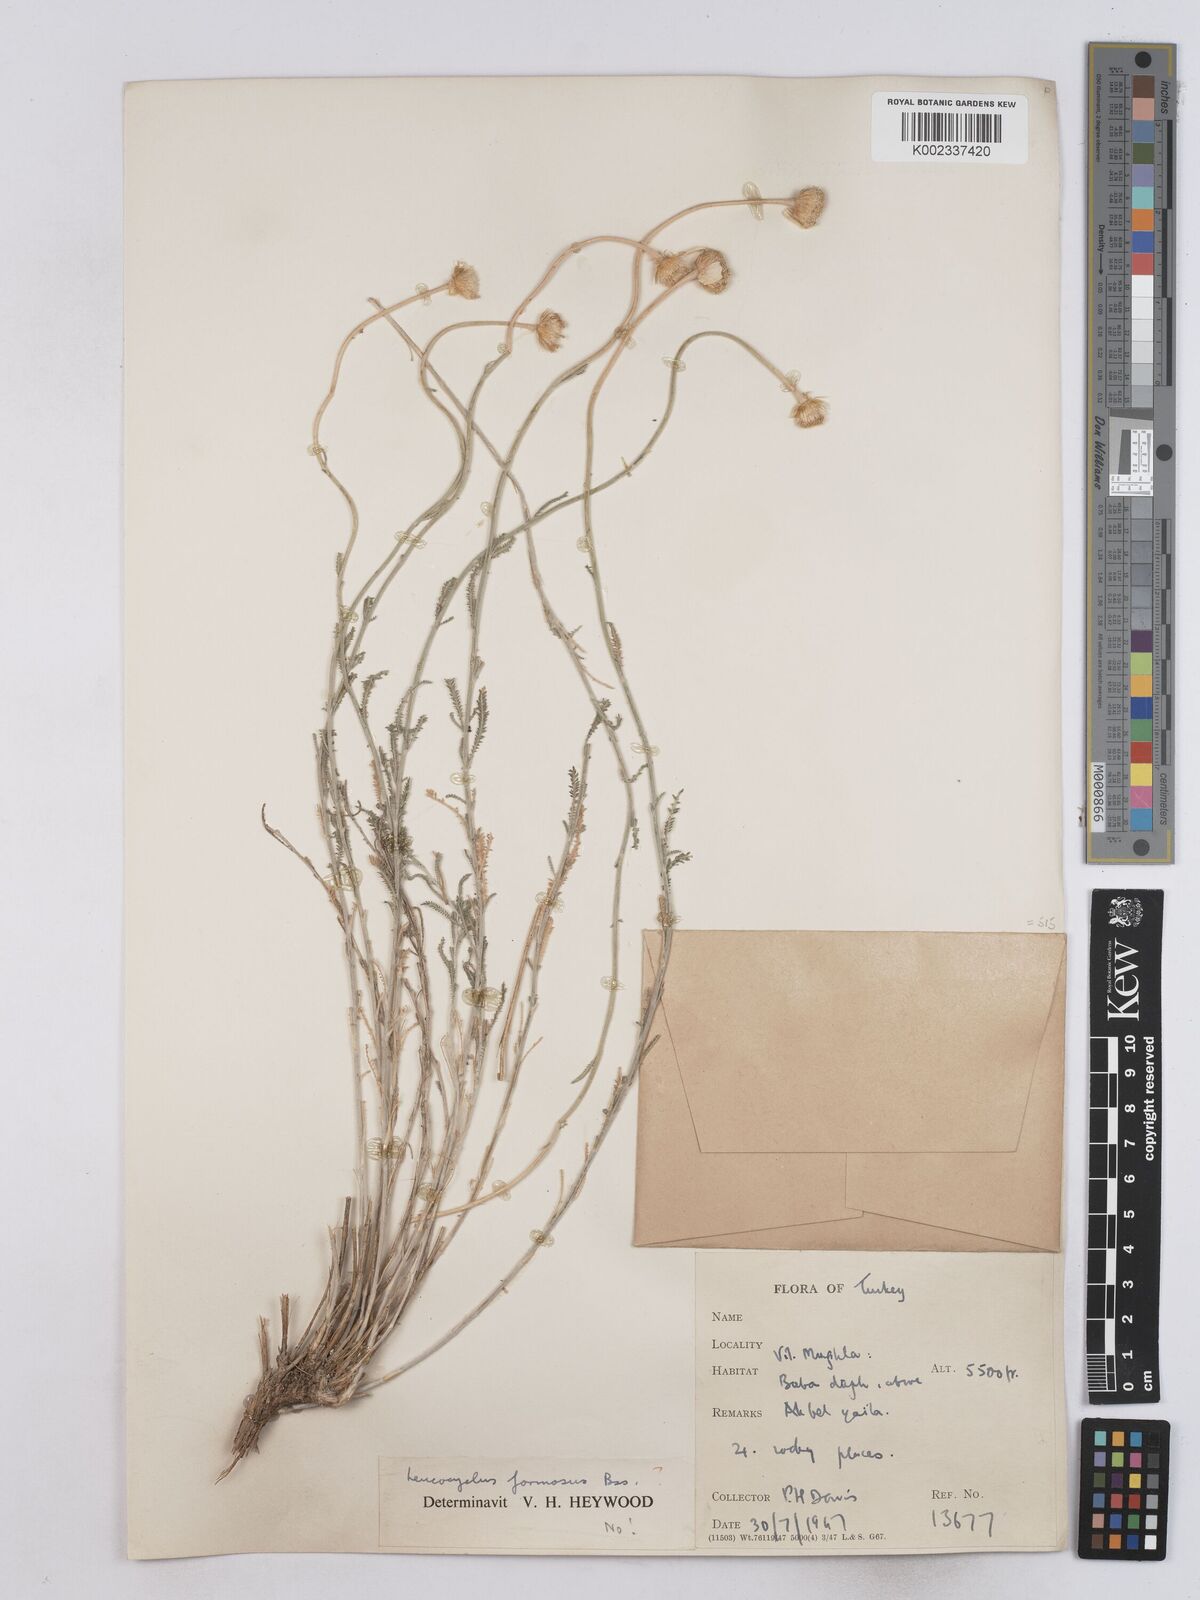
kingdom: Plantae
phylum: Tracheophyta
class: Magnoliopsida
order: Asterales
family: Asteraceae
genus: Achillea
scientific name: Achillea formosa
